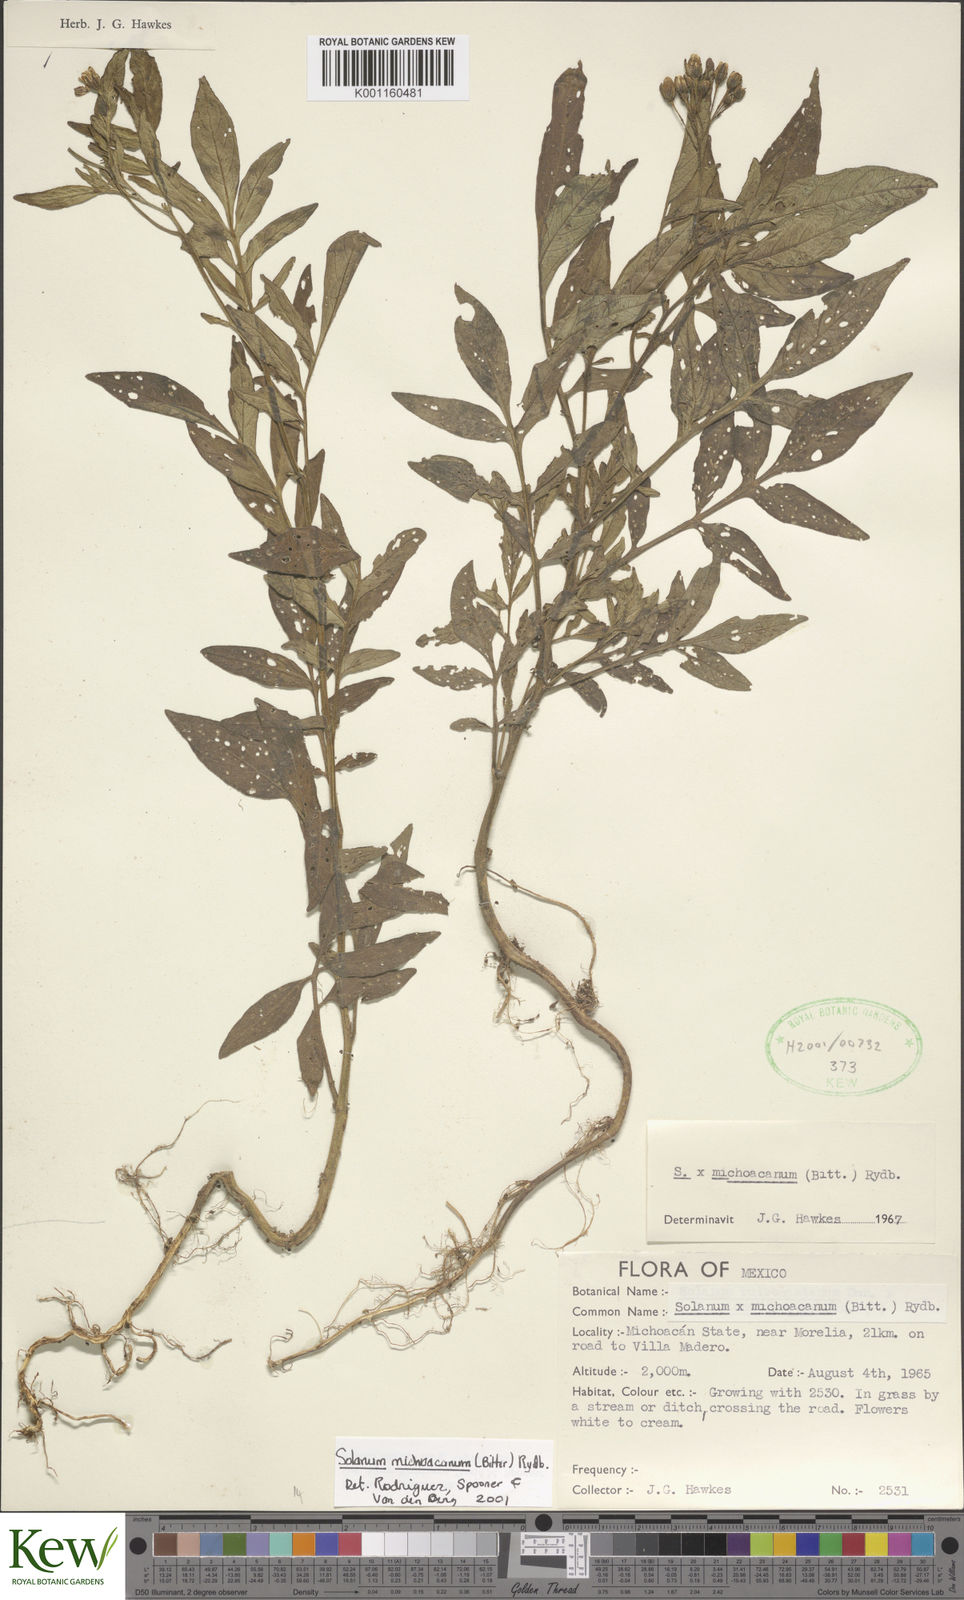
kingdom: Plantae
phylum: Tracheophyta
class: Magnoliopsida
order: Solanales
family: Solanaceae
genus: Solanum
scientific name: Solanum bulbocastanum
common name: Ornamental nightshade
